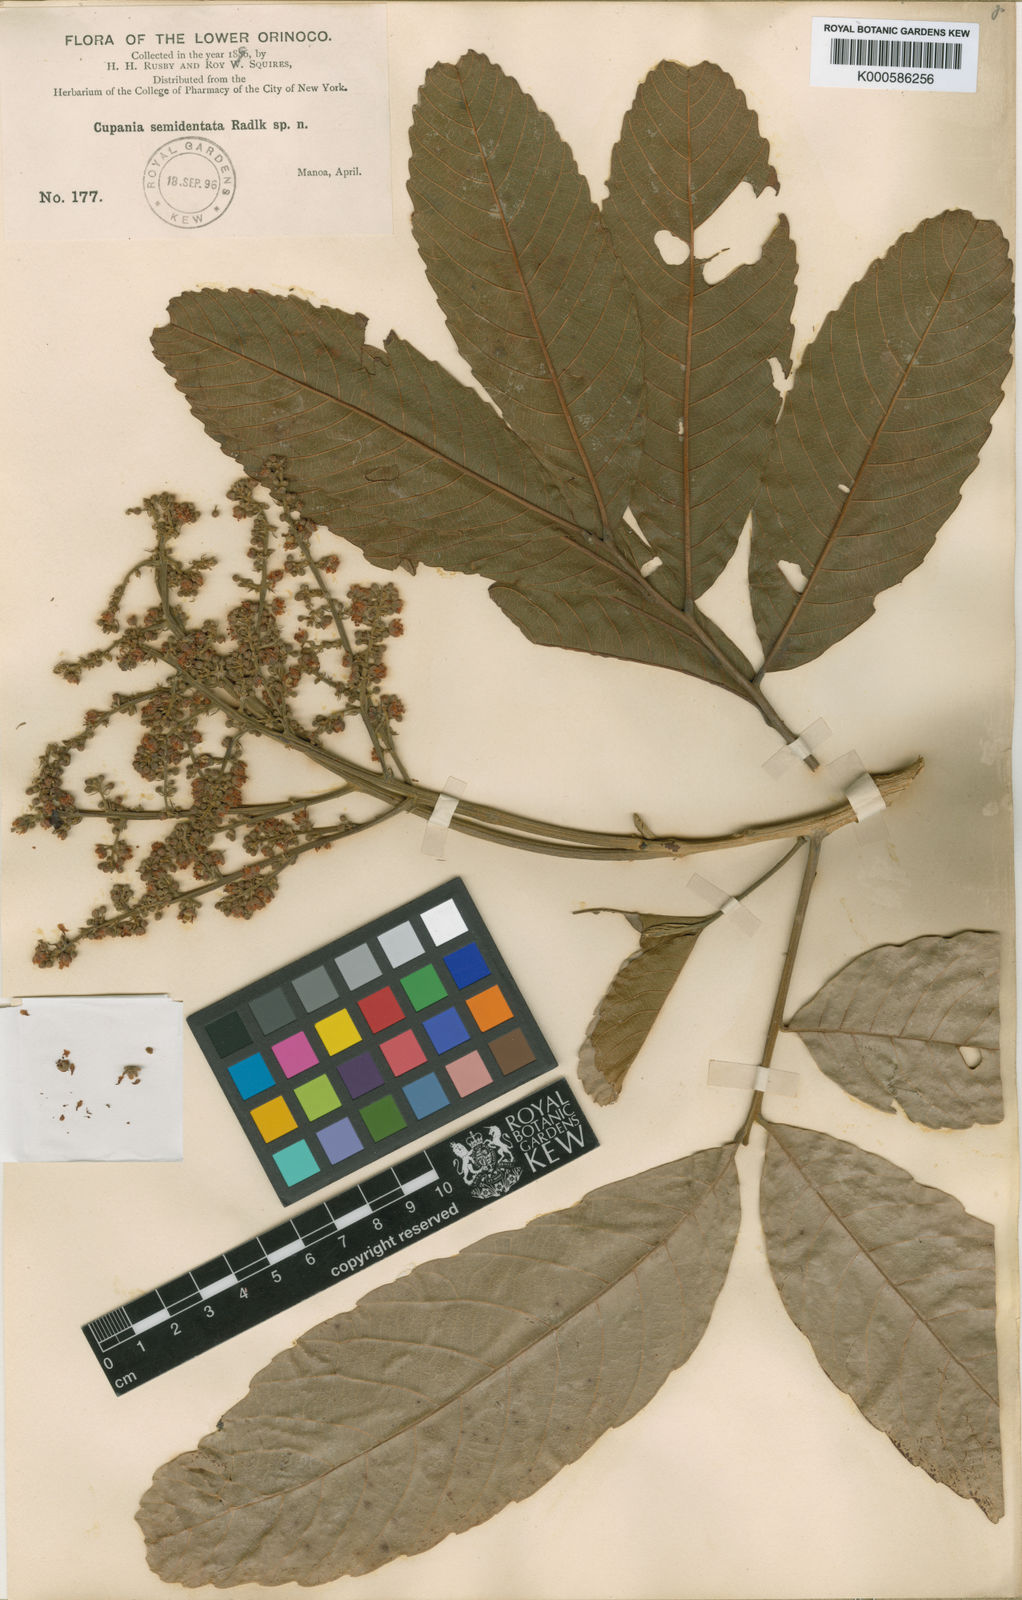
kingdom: Plantae
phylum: Tracheophyta
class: Magnoliopsida
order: Sapindales
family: Sapindaceae
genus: Cupania
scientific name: Cupania latifolia
